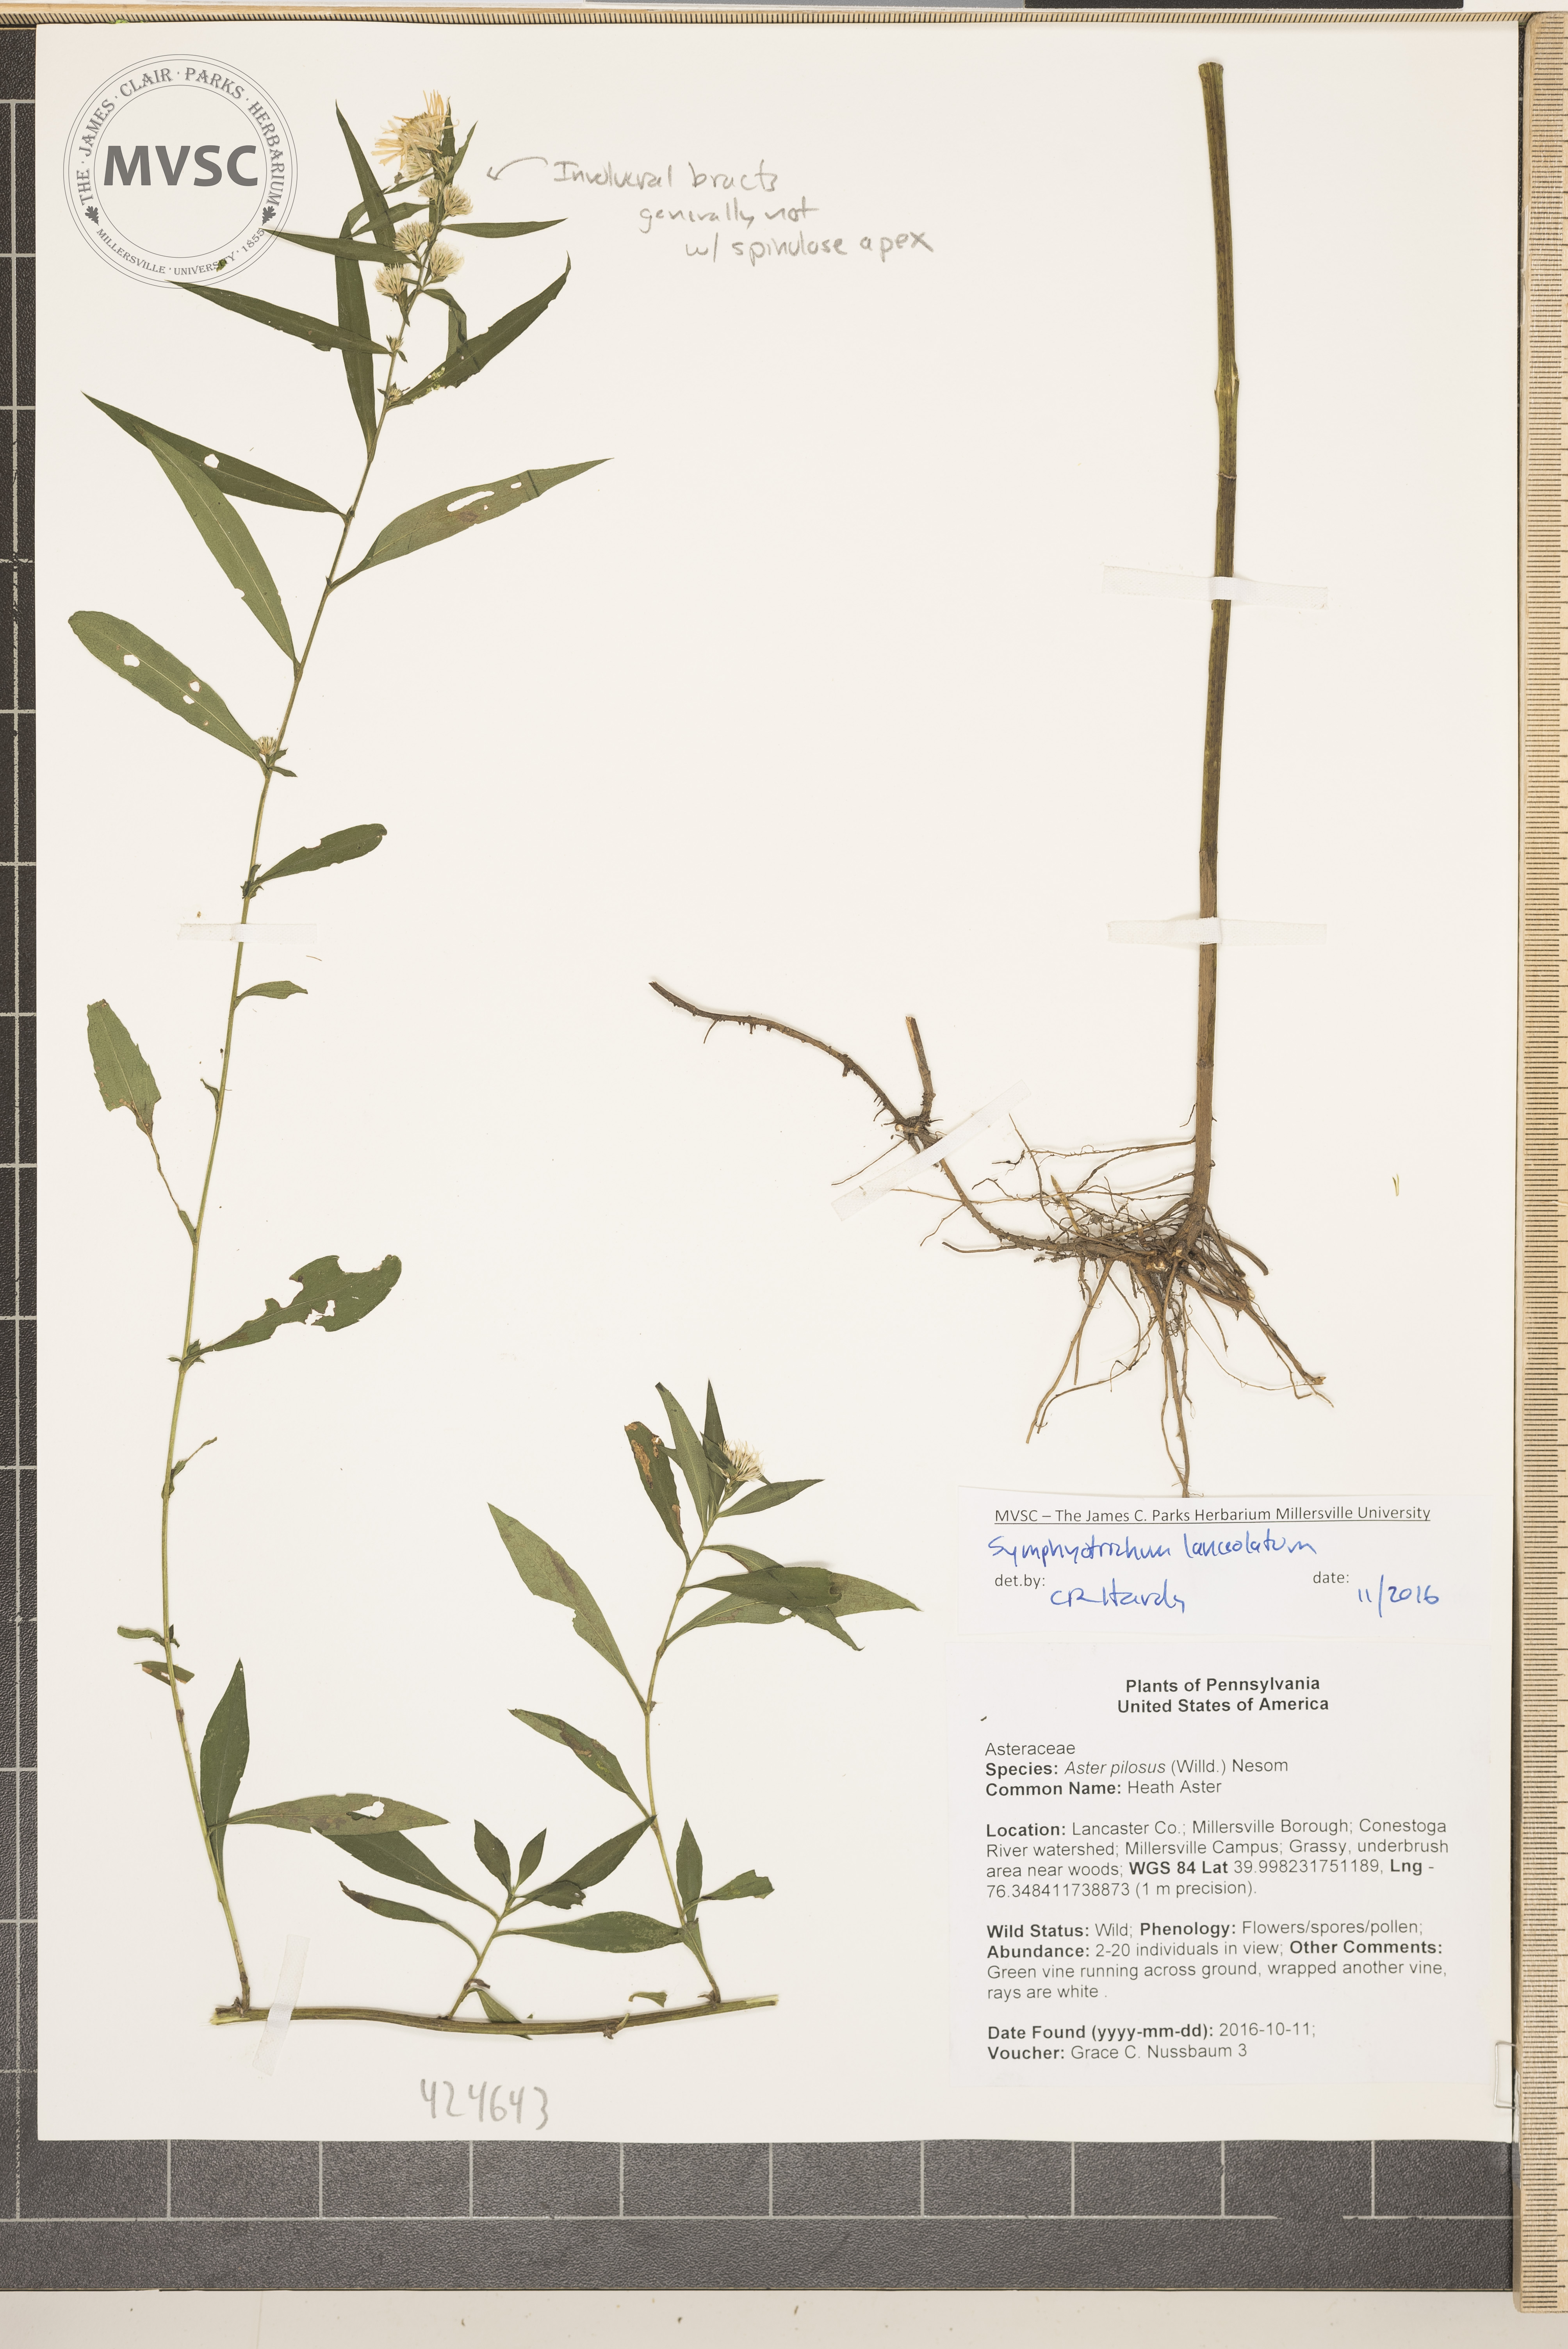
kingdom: Plantae
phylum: Tracheophyta
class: Magnoliopsida
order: Asterales
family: Asteraceae
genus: Symphyotrichum
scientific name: Symphyotrichum lanceolatum
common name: Aster
